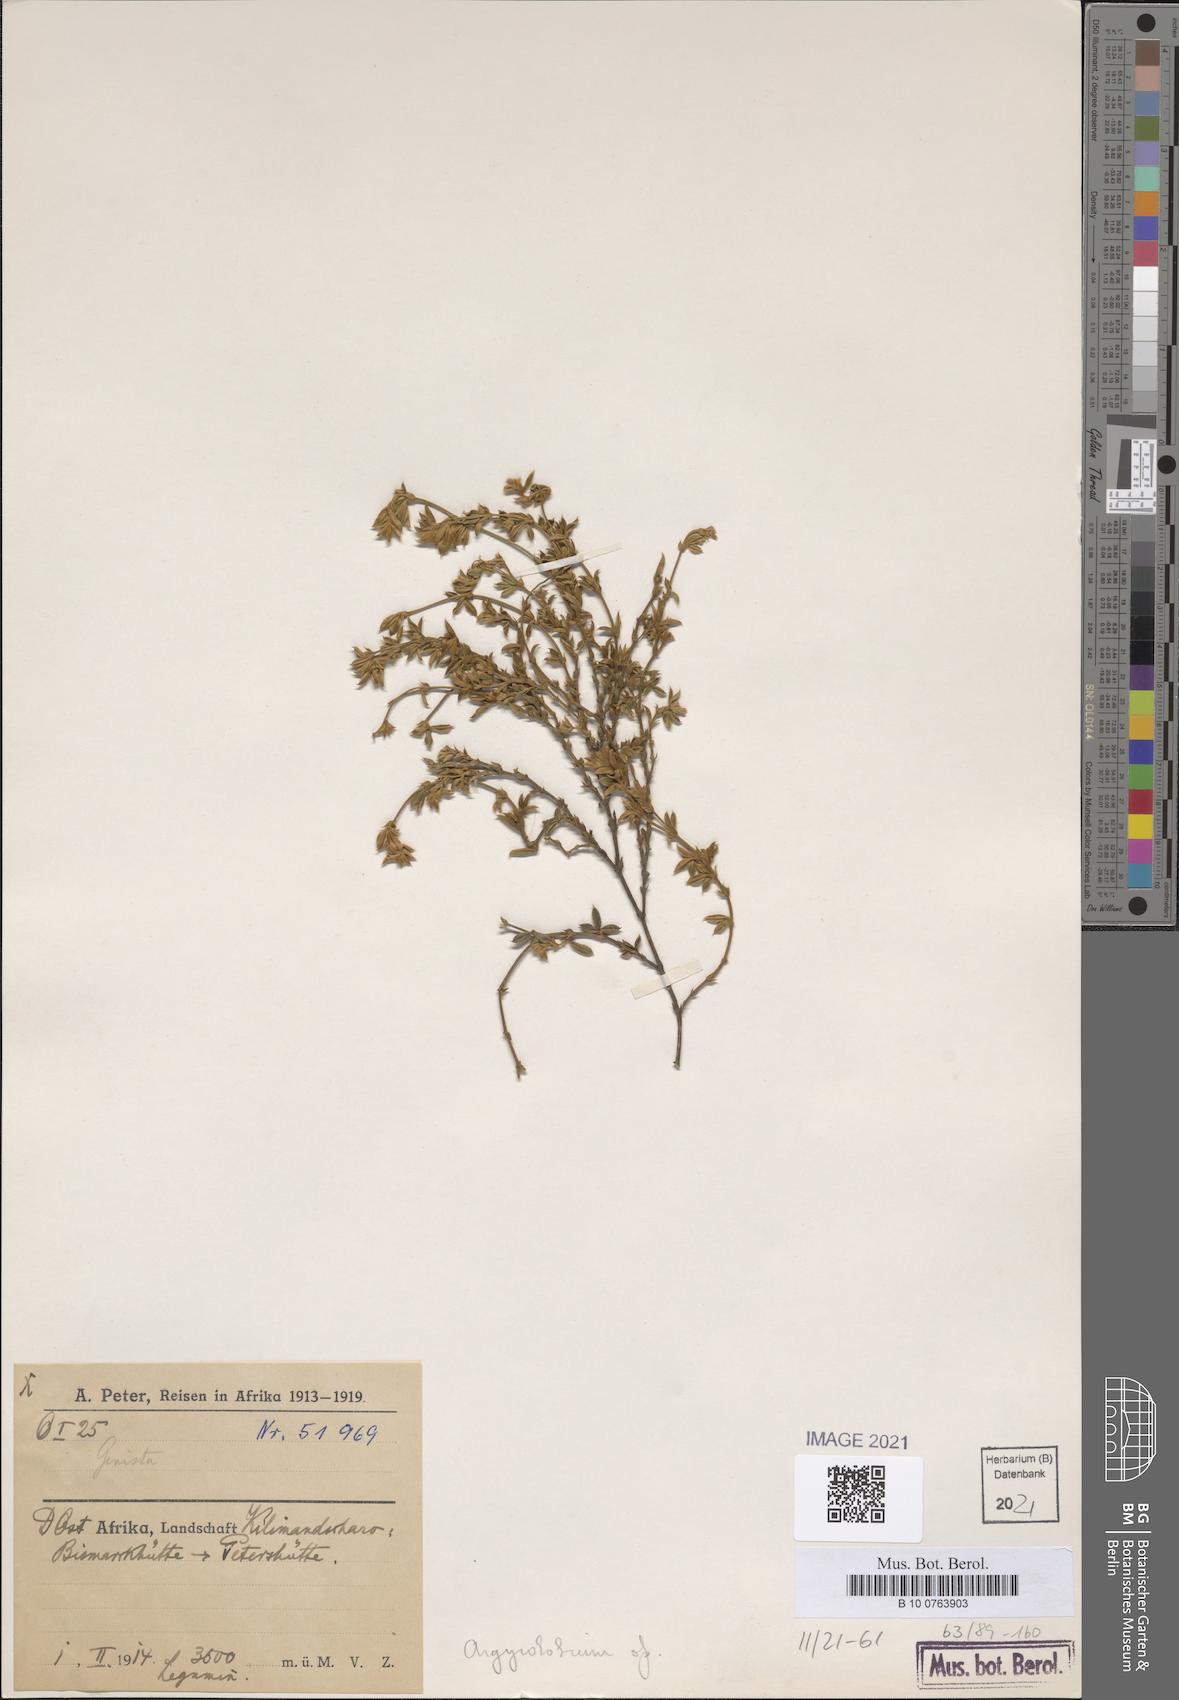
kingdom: Plantae
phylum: Tracheophyta
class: Magnoliopsida
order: Fabales
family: Fabaceae
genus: Argyrolobium
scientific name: Argyrolobium
